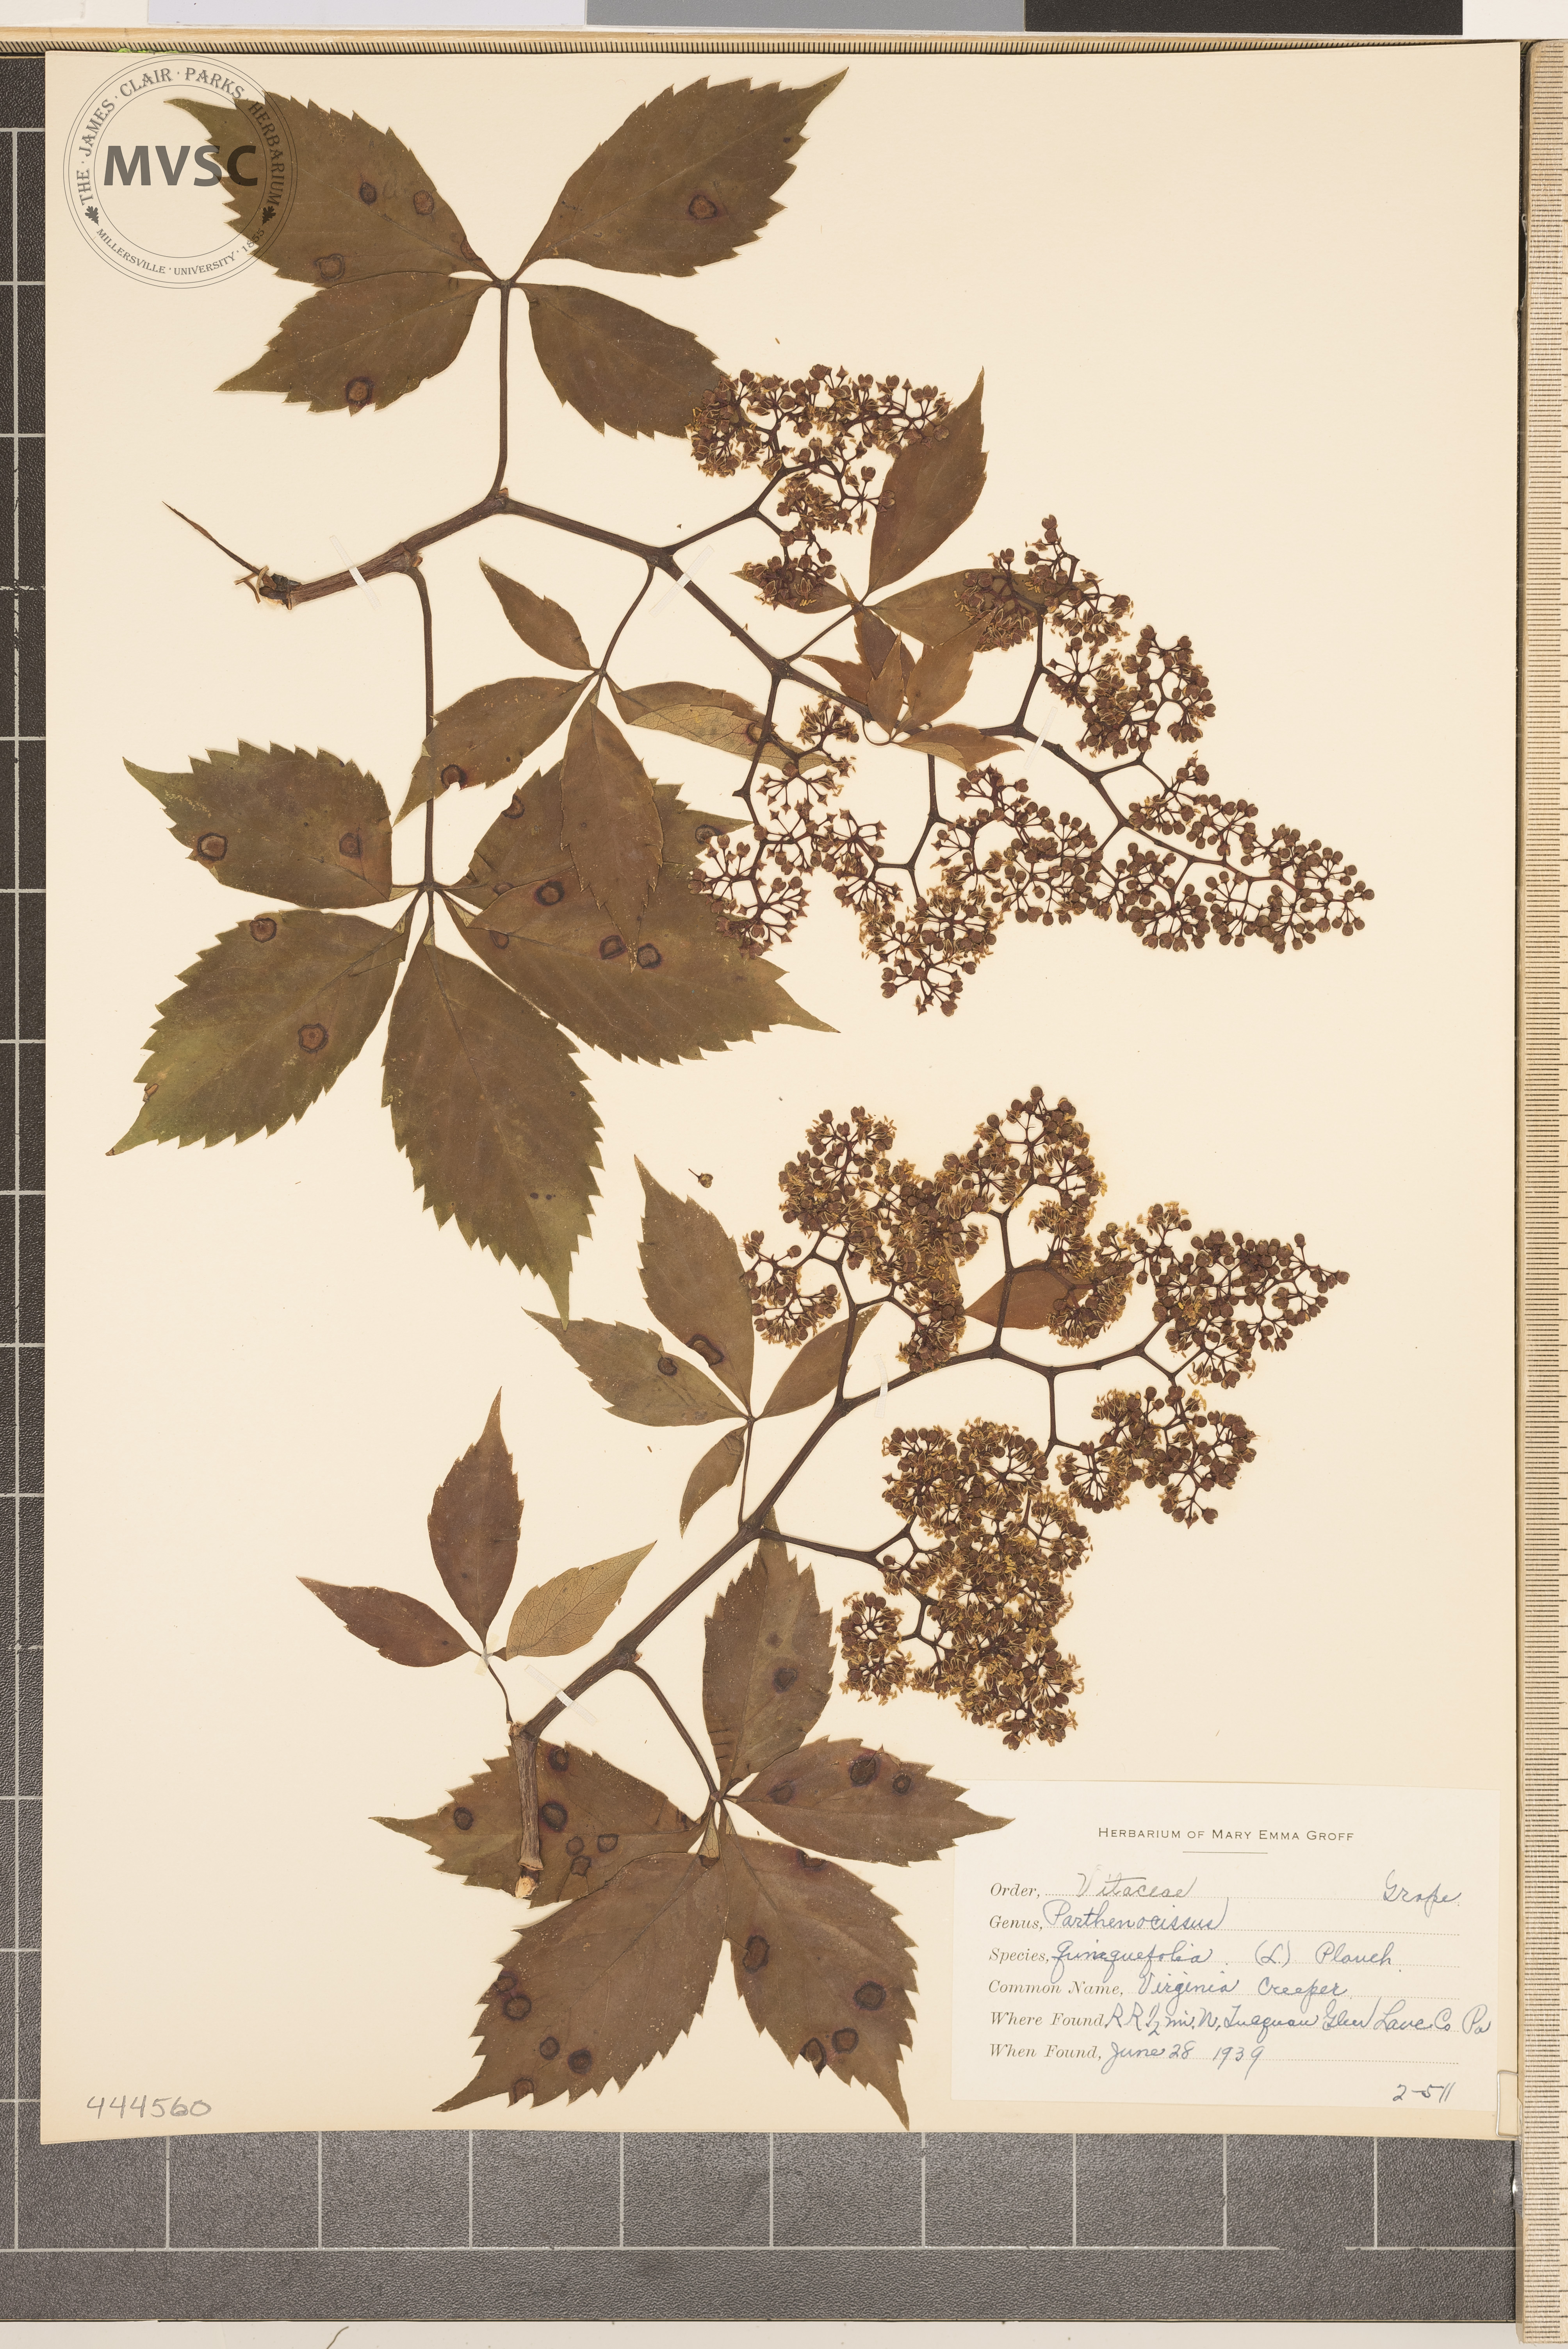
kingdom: Plantae
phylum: Tracheophyta
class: Magnoliopsida
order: Vitales
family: Vitaceae
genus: Parthenocissus
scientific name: Parthenocissus quinquefolia
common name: Virginia Creeper
